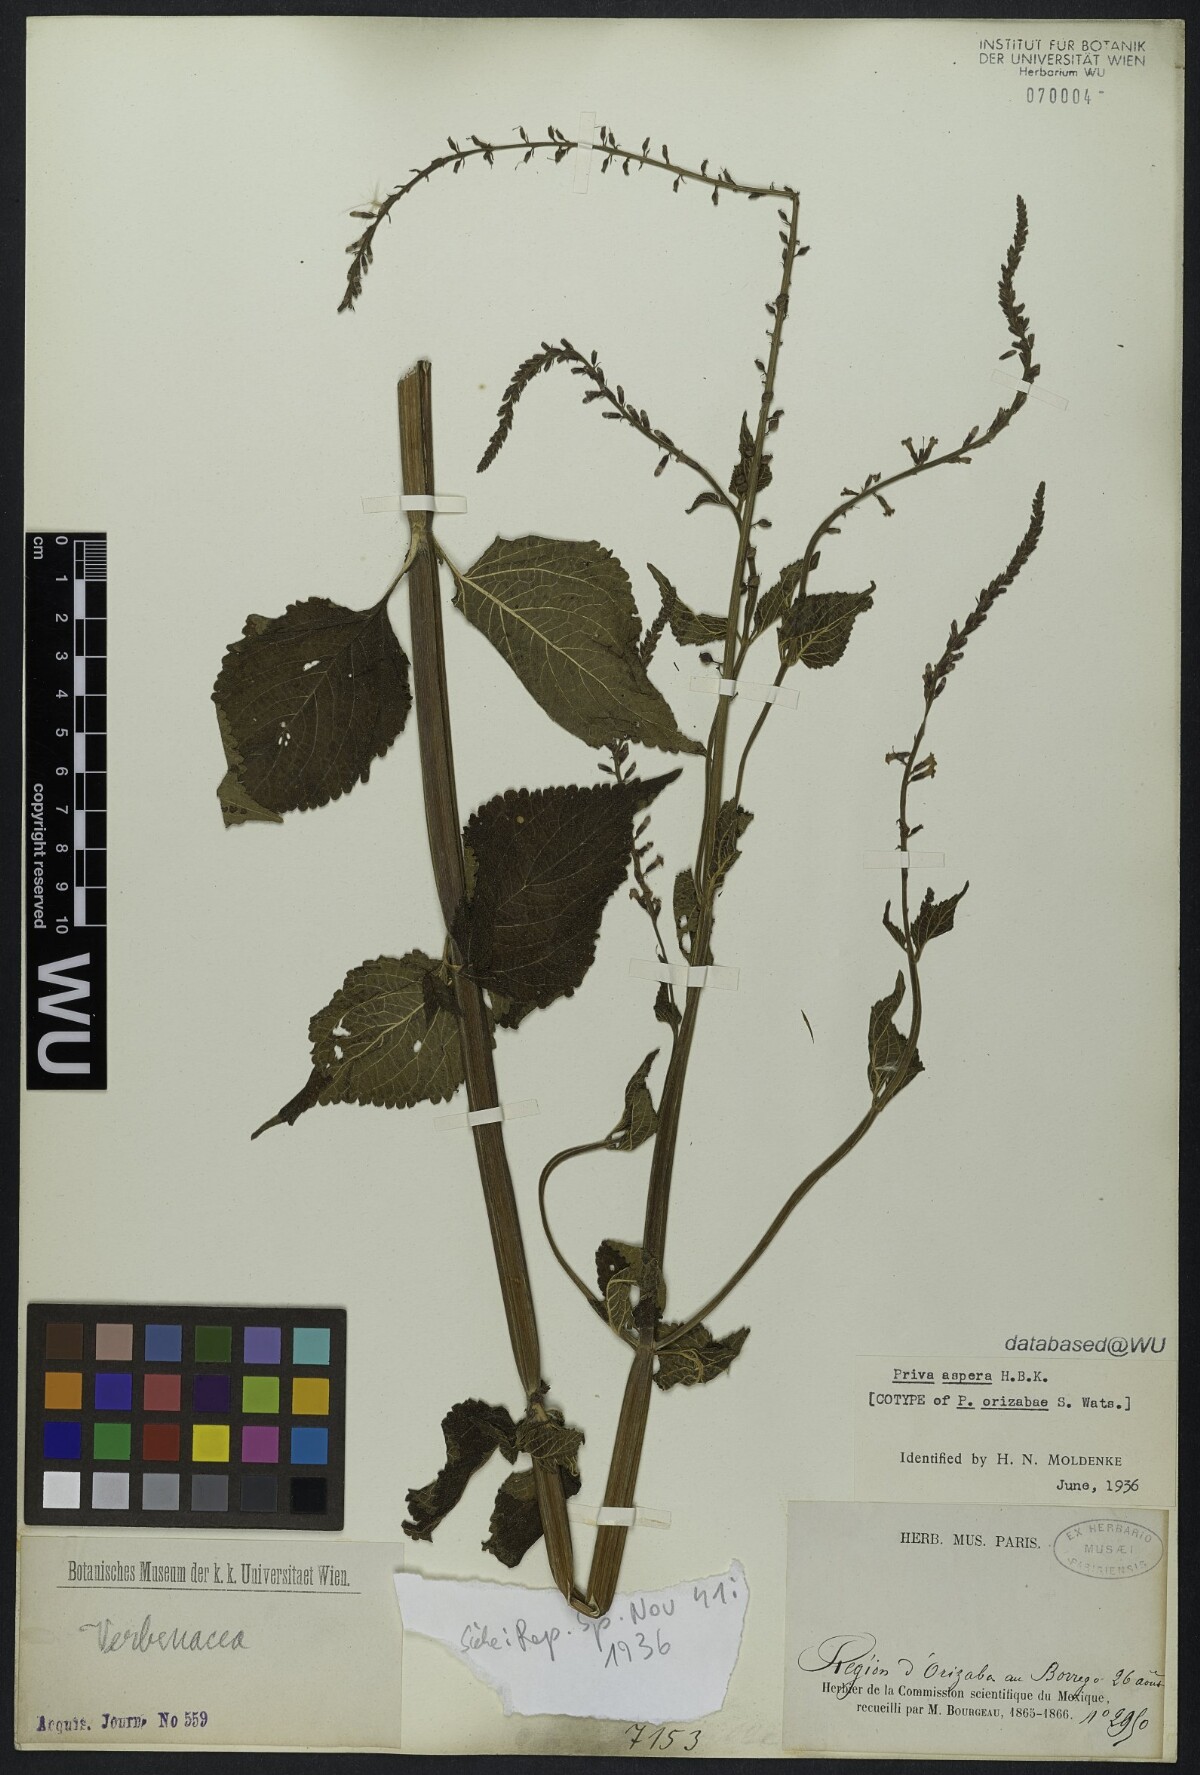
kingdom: Plantae
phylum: Tracheophyta
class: Magnoliopsida
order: Lamiales
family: Verbenaceae
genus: Priva
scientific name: Priva aspera
